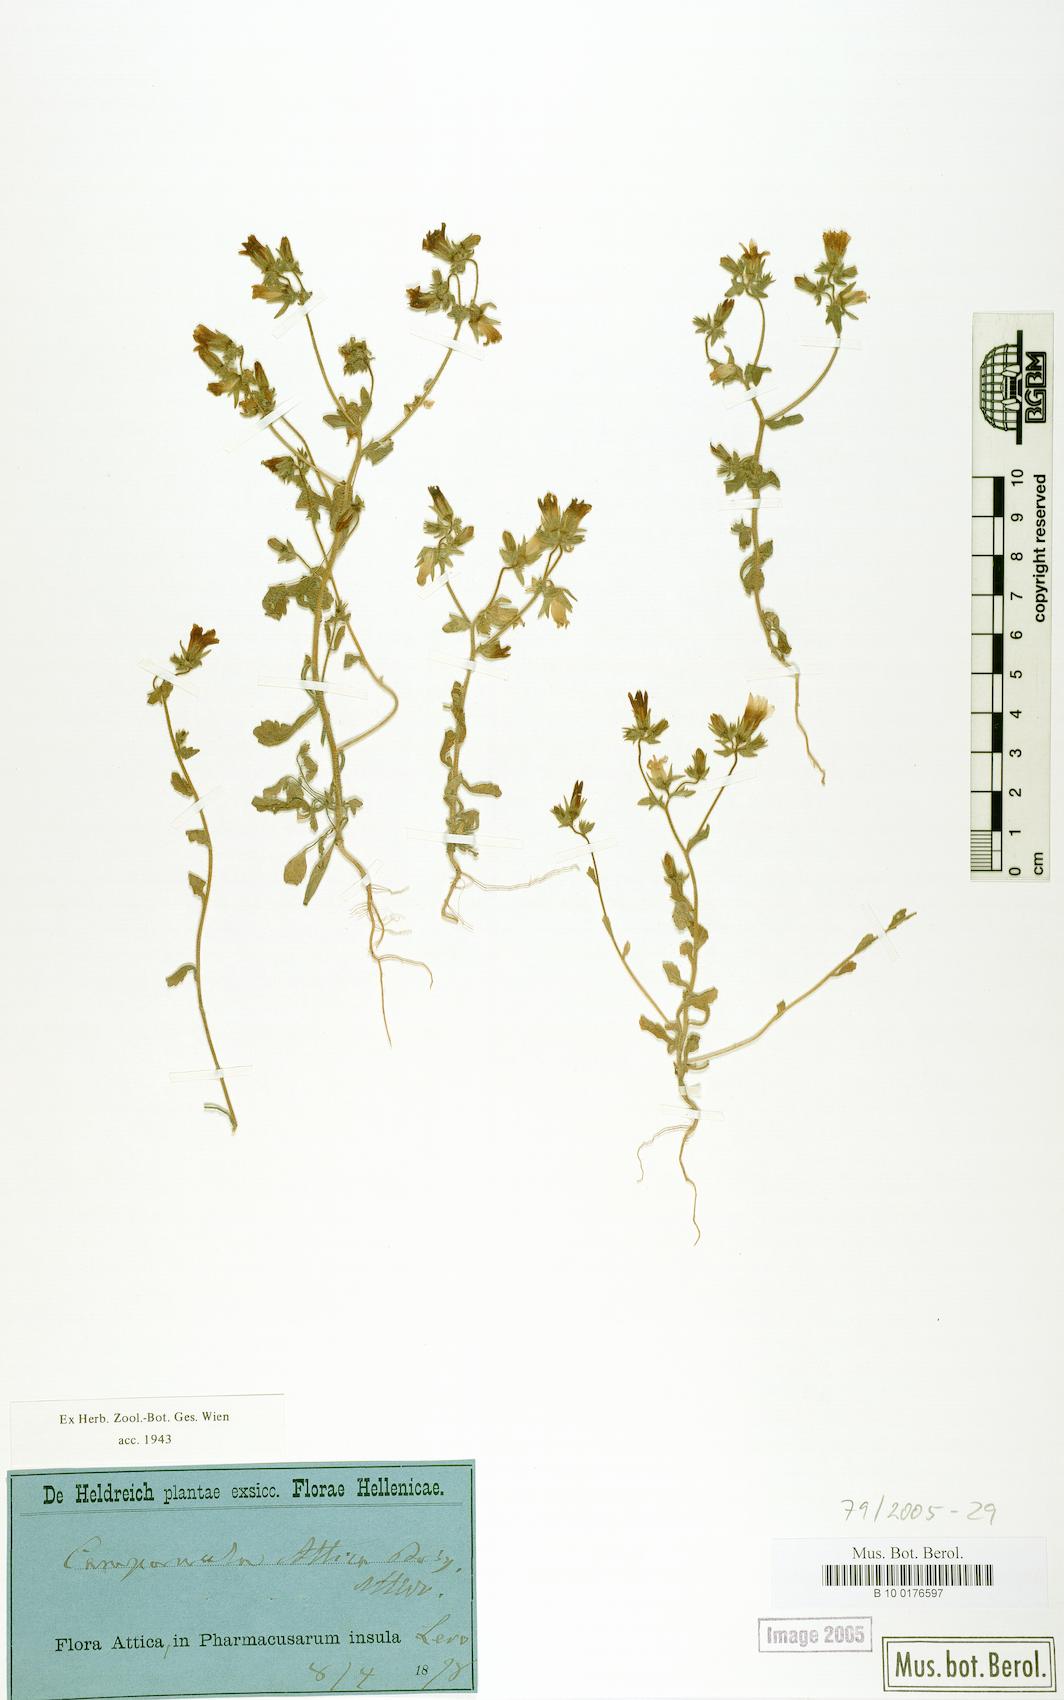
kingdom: Plantae
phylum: Tracheophyta
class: Magnoliopsida
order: Asterales
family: Campanulaceae
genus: Campanula
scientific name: Campanula drabifolia
